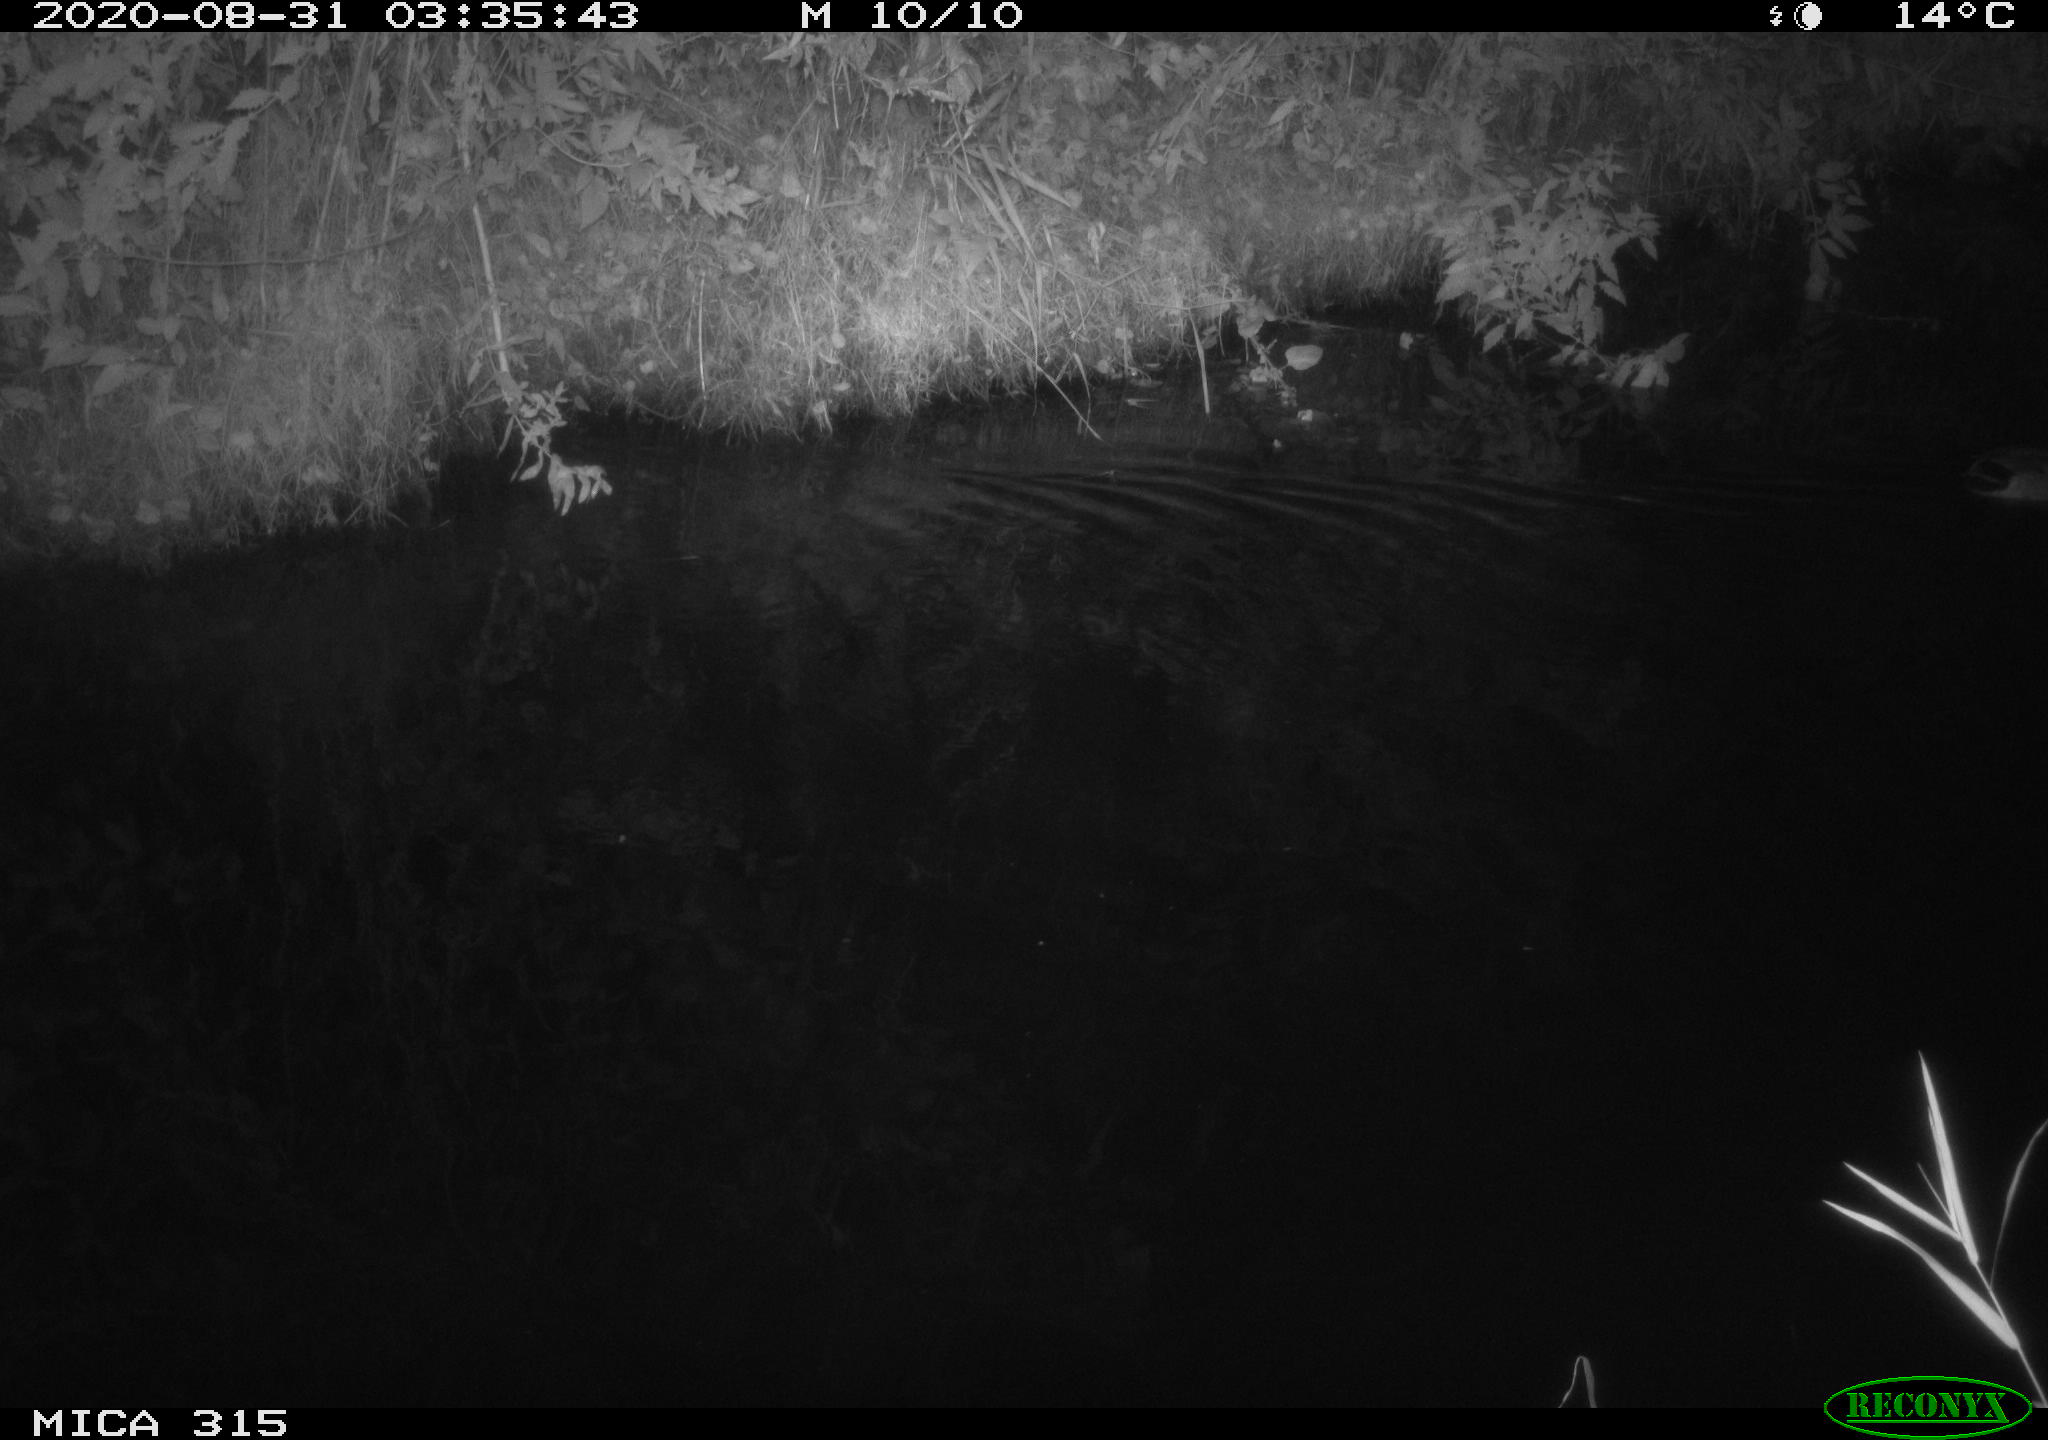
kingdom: Animalia
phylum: Chordata
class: Aves
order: Anseriformes
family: Anatidae
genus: Anas
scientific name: Anas platyrhynchos
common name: Mallard
